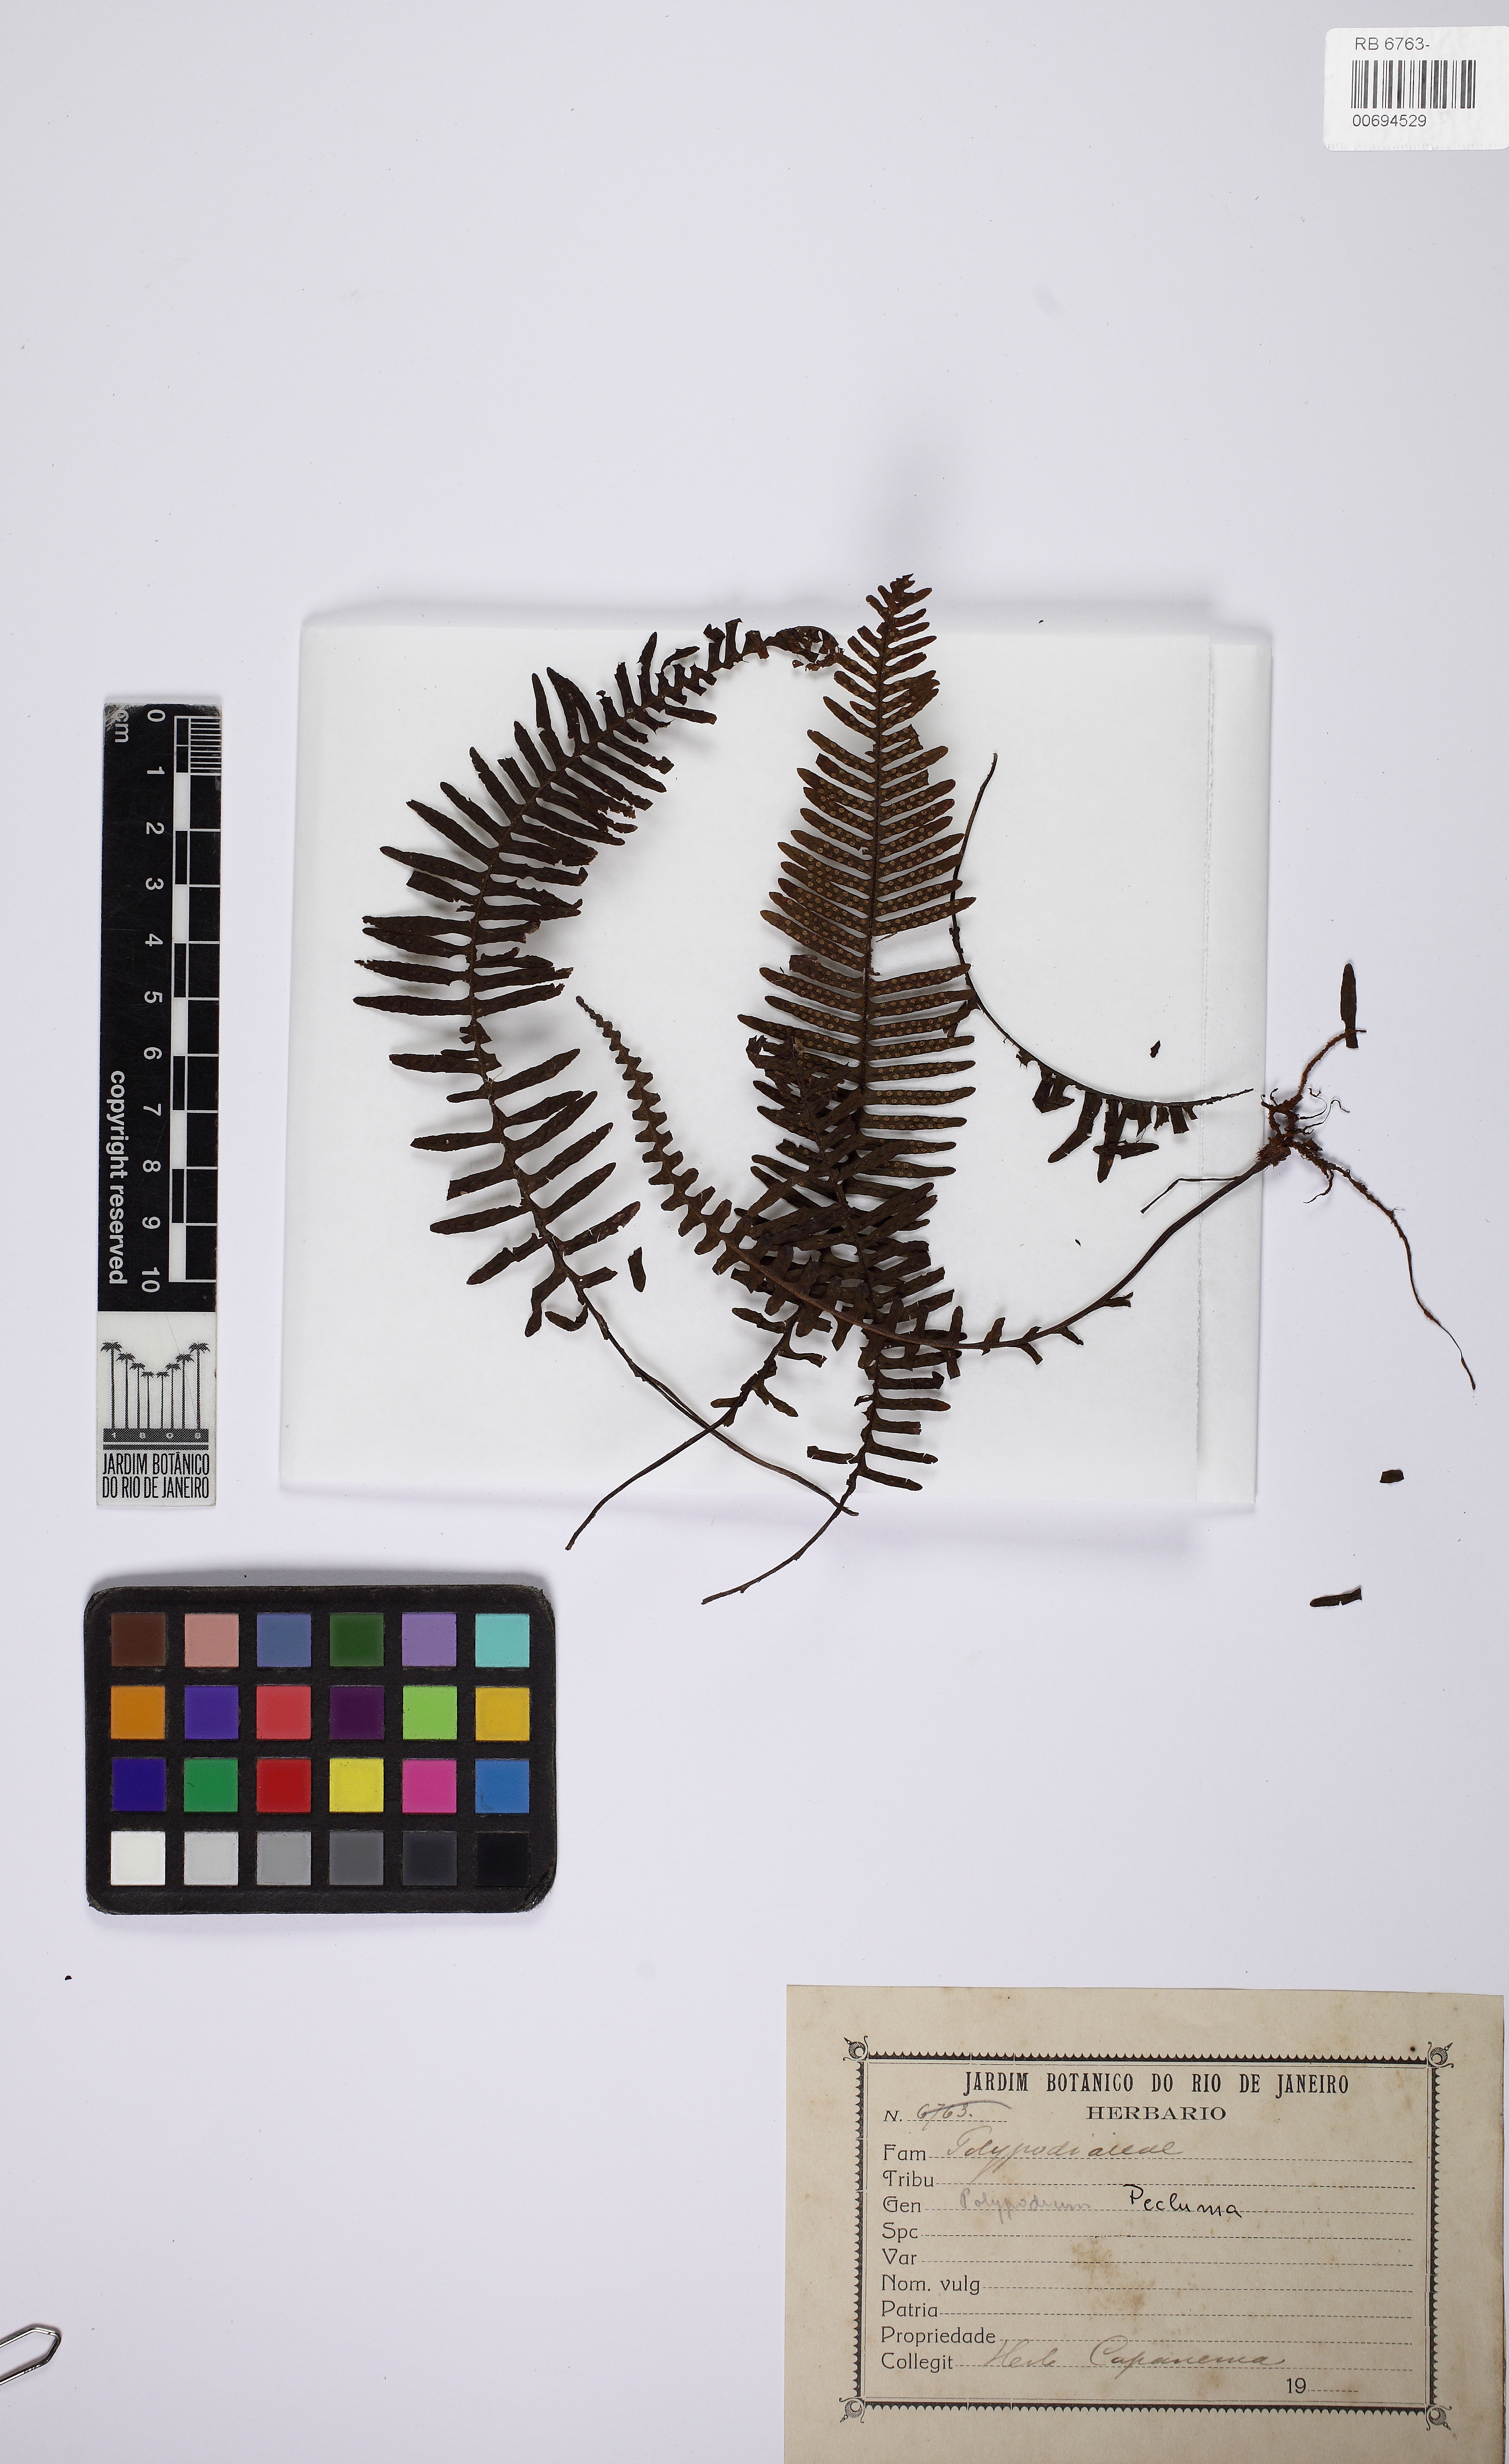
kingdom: Plantae
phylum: Tracheophyta
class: Polypodiopsida
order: Polypodiales
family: Polypodiaceae
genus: Pecluma
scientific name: Pecluma
